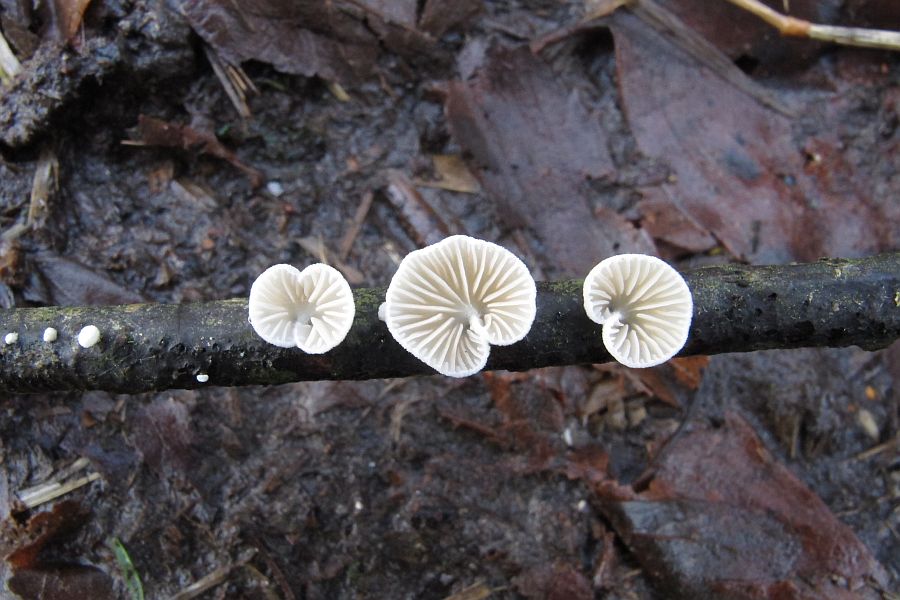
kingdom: Fungi
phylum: Basidiomycota
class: Agaricomycetes
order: Agaricales
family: Crepidotaceae
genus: Crepidotus
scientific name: Crepidotus cesatii
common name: almindelig muslingesvamp
